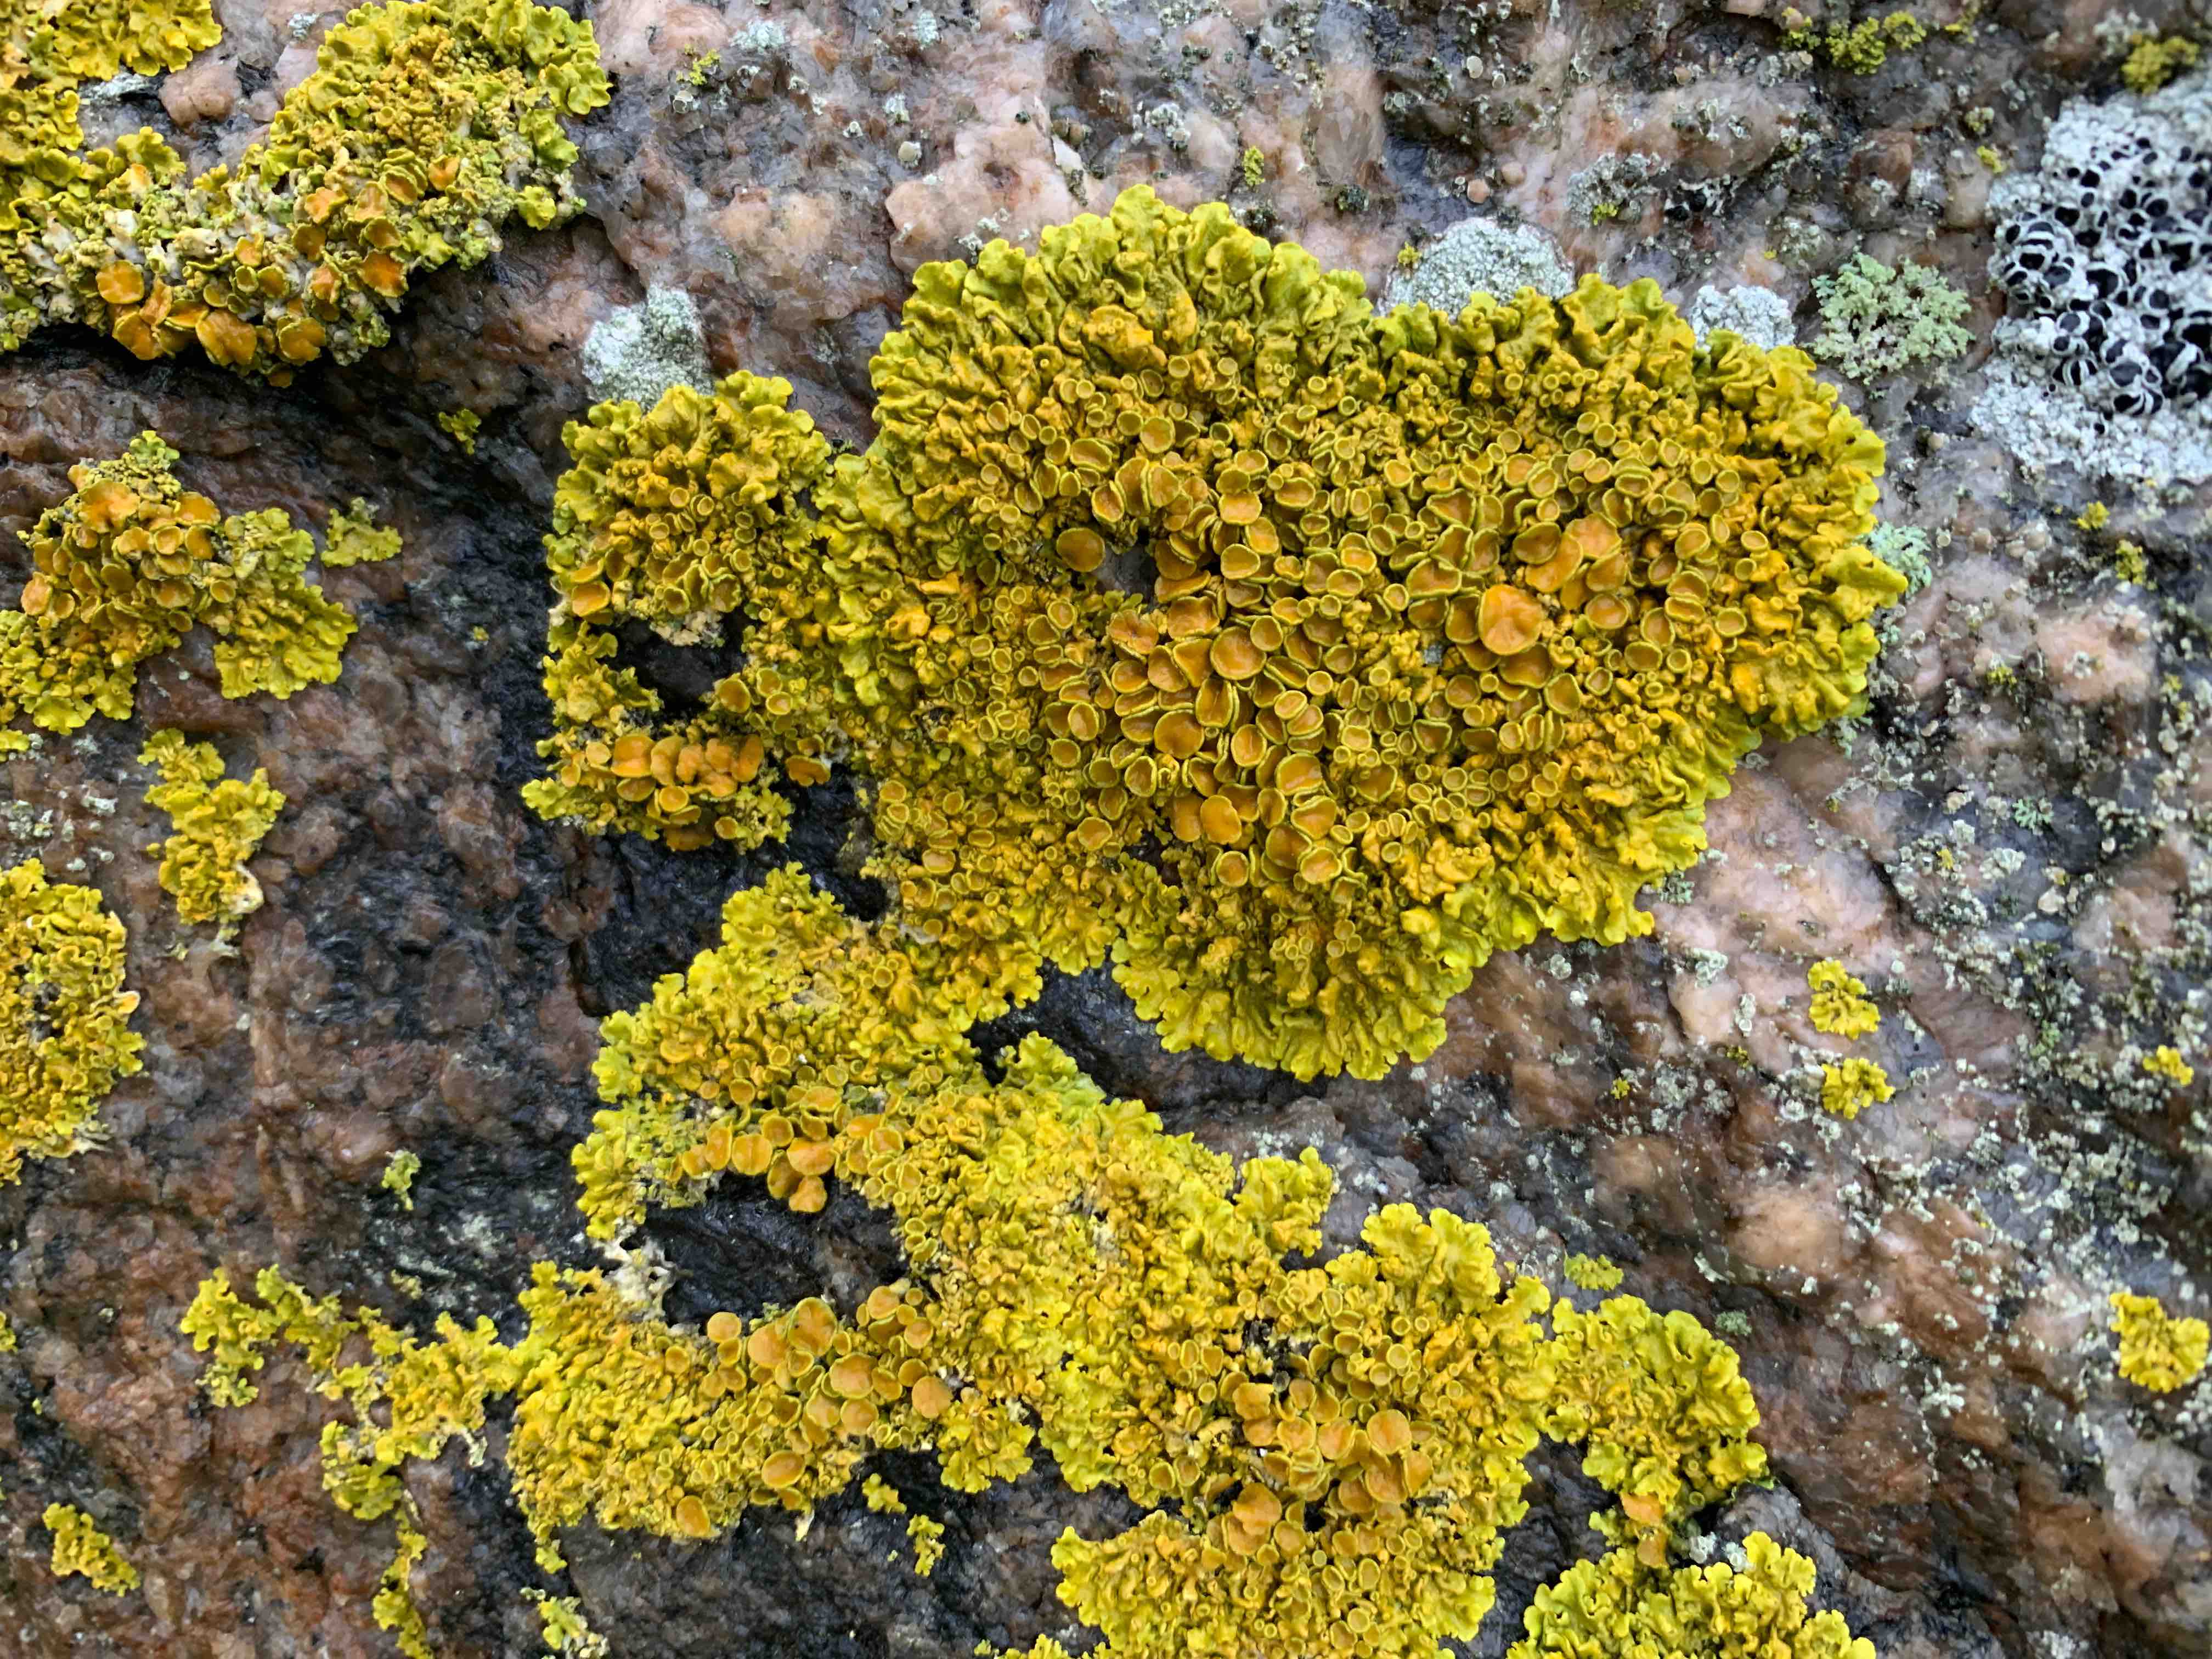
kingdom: Fungi
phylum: Ascomycota
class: Lecanoromycetes
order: Teloschistales
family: Teloschistaceae
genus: Xanthoria
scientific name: Xanthoria parietina
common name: almindelig væggelav
